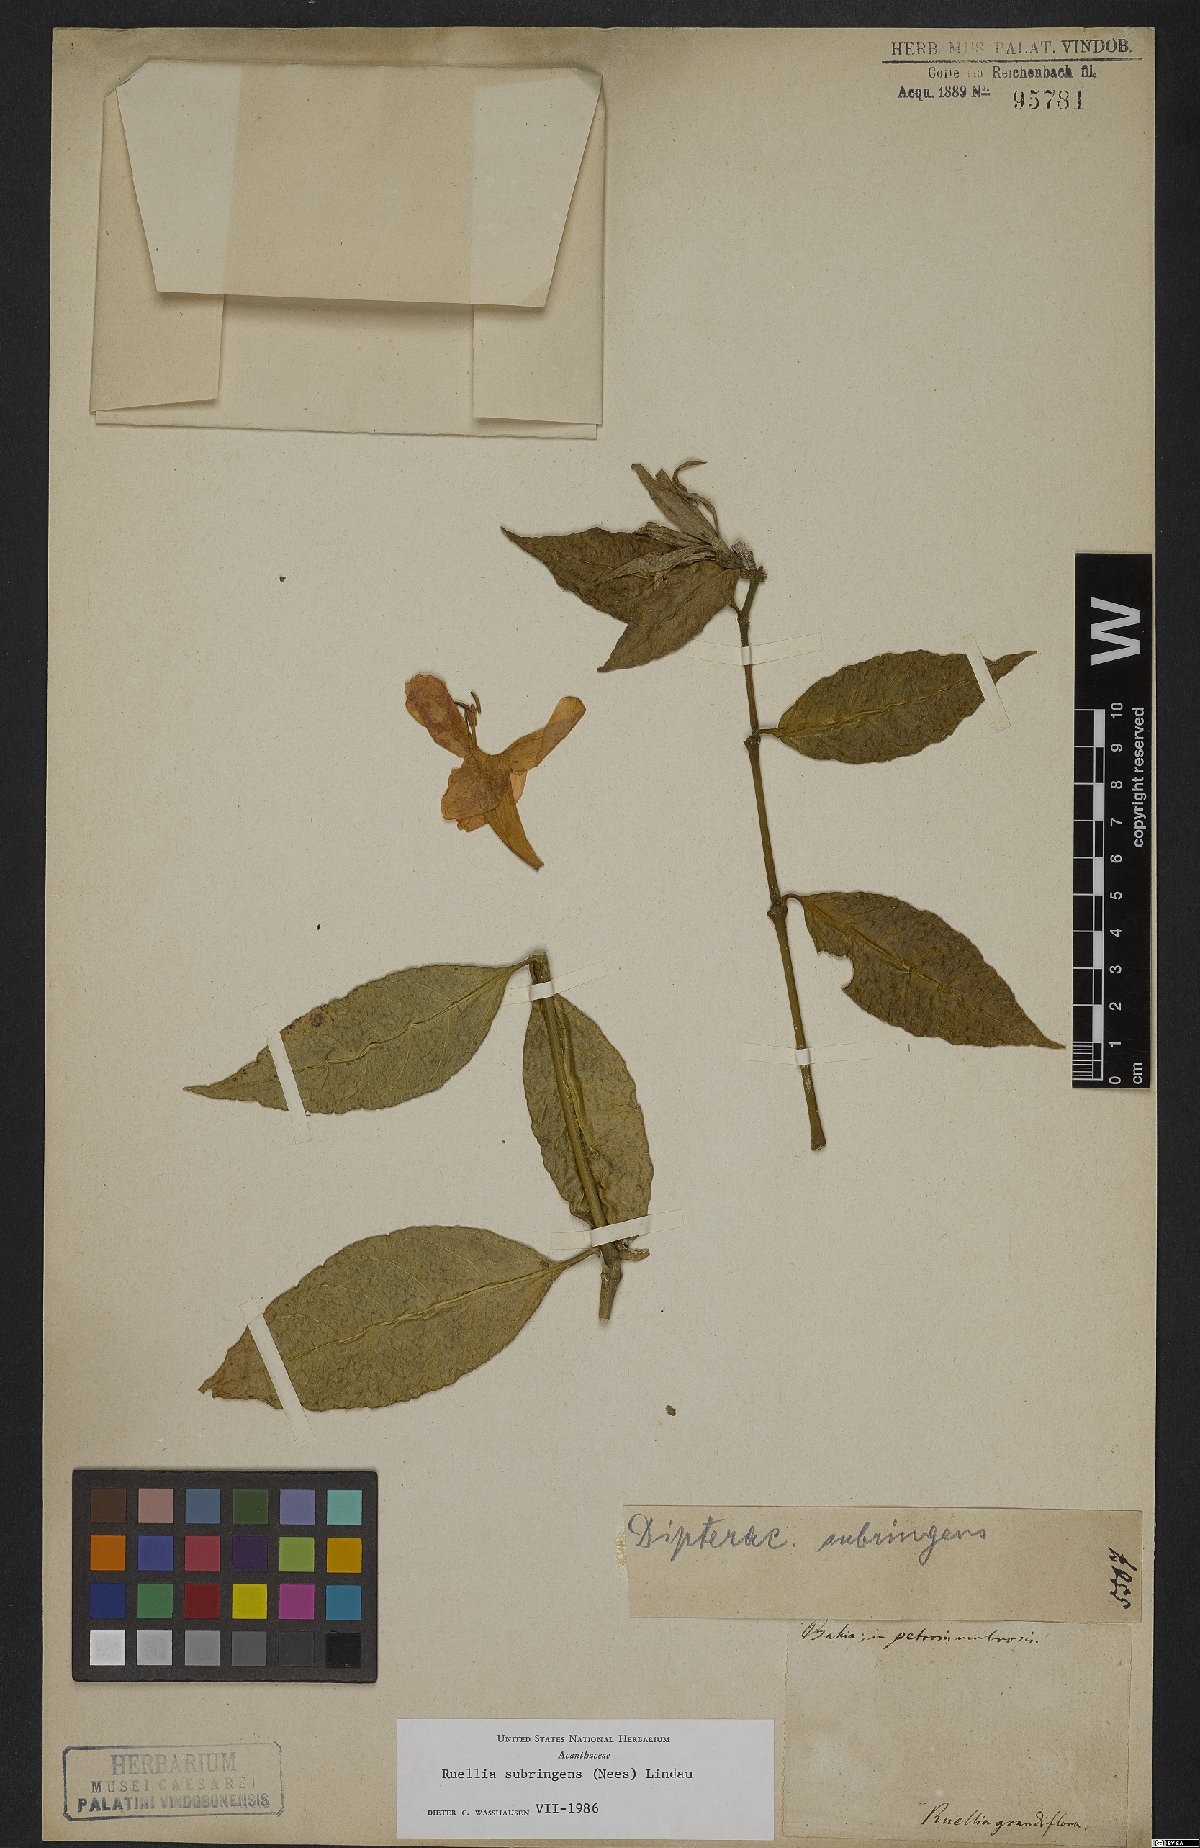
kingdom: Plantae
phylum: Tracheophyta
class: Magnoliopsida
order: Lamiales
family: Acanthaceae
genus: Ruellia
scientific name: Ruellia subringens
